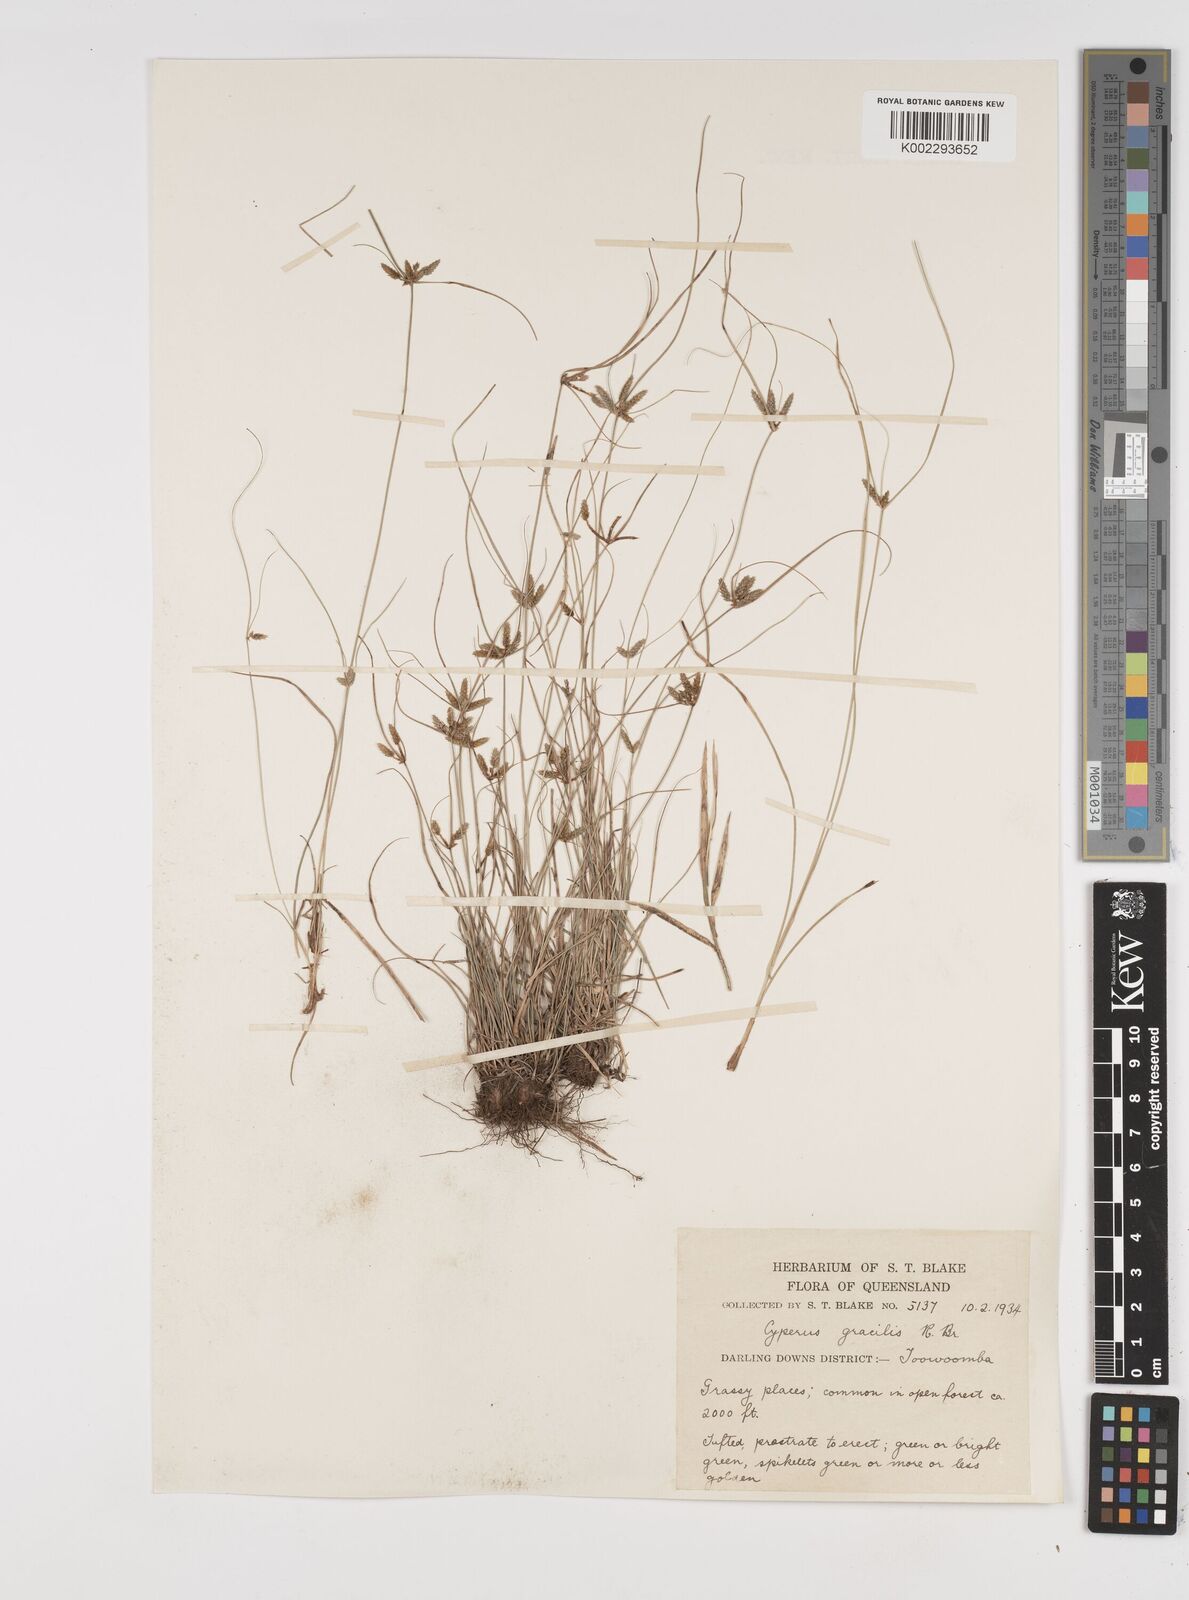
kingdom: Plantae
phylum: Tracheophyta
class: Liliopsida
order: Poales
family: Cyperaceae
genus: Cyperus
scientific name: Cyperus gracilis
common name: Slimjim flatsedge
